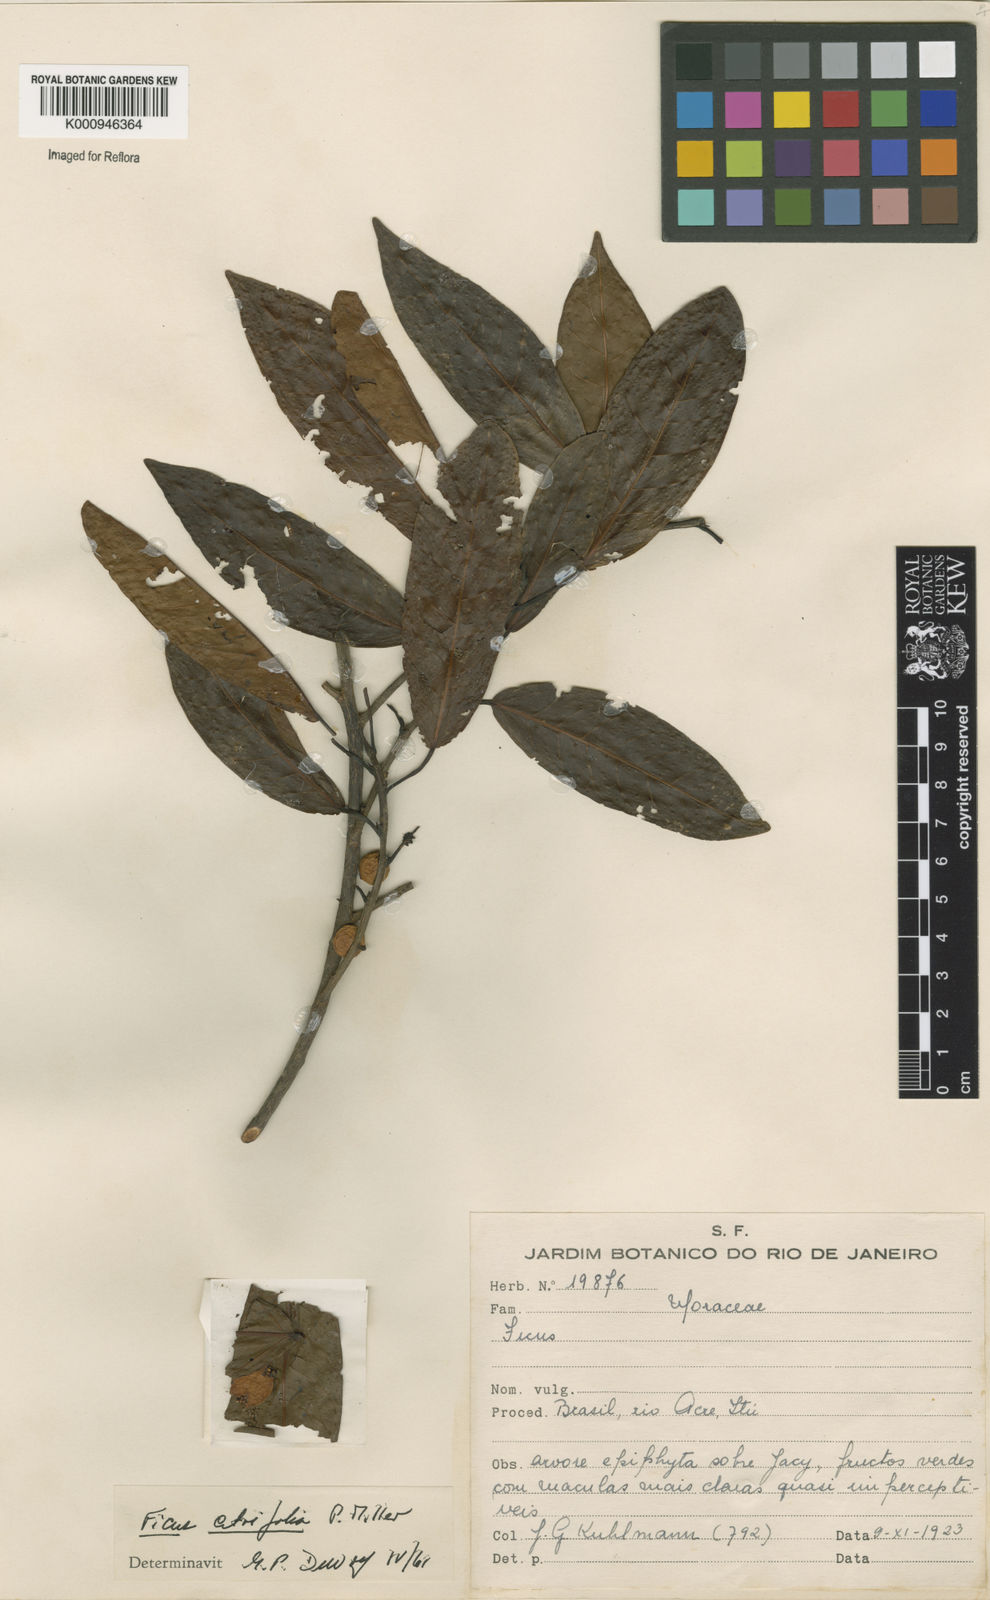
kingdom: Plantae
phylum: Tracheophyta
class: Magnoliopsida
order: Rosales
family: Moraceae
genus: Ficus
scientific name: Ficus citrifolia
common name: Strangler fig
